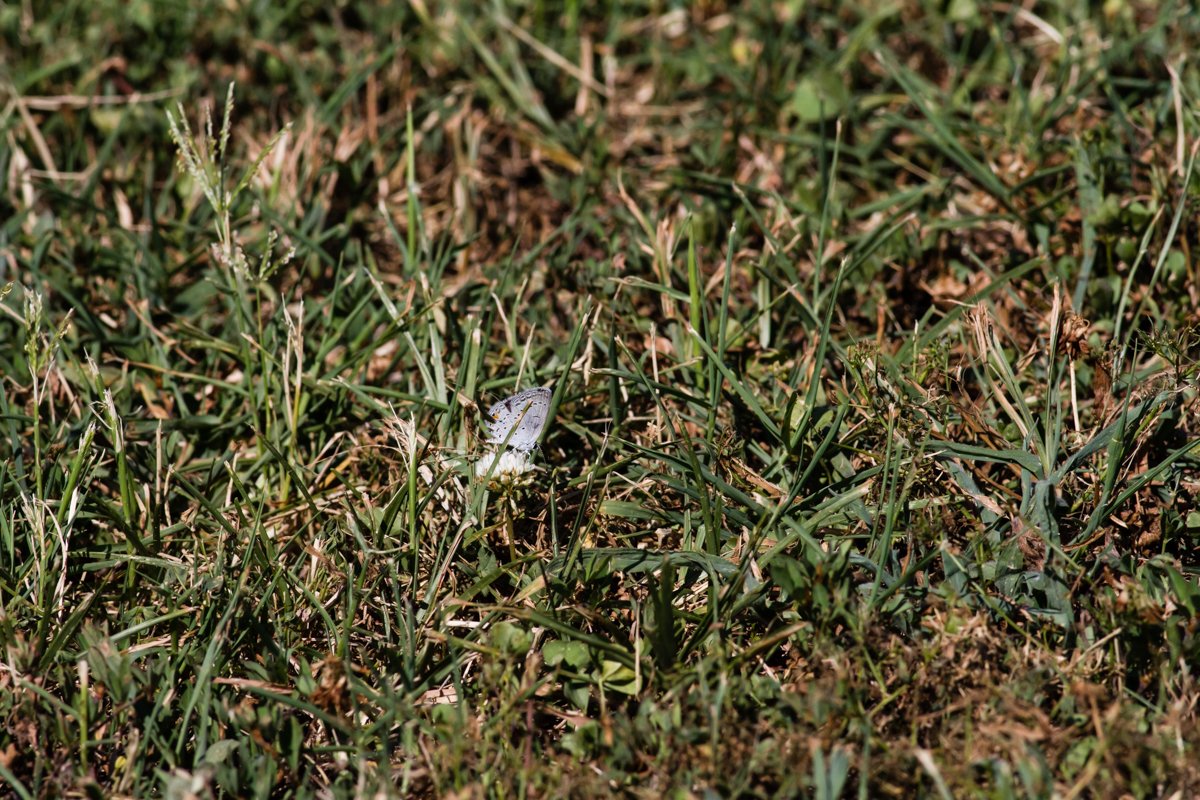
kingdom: Animalia
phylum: Arthropoda
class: Insecta
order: Lepidoptera
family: Lycaenidae
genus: Elkalyce
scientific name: Elkalyce comyntas
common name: Eastern Tailed-Blue
